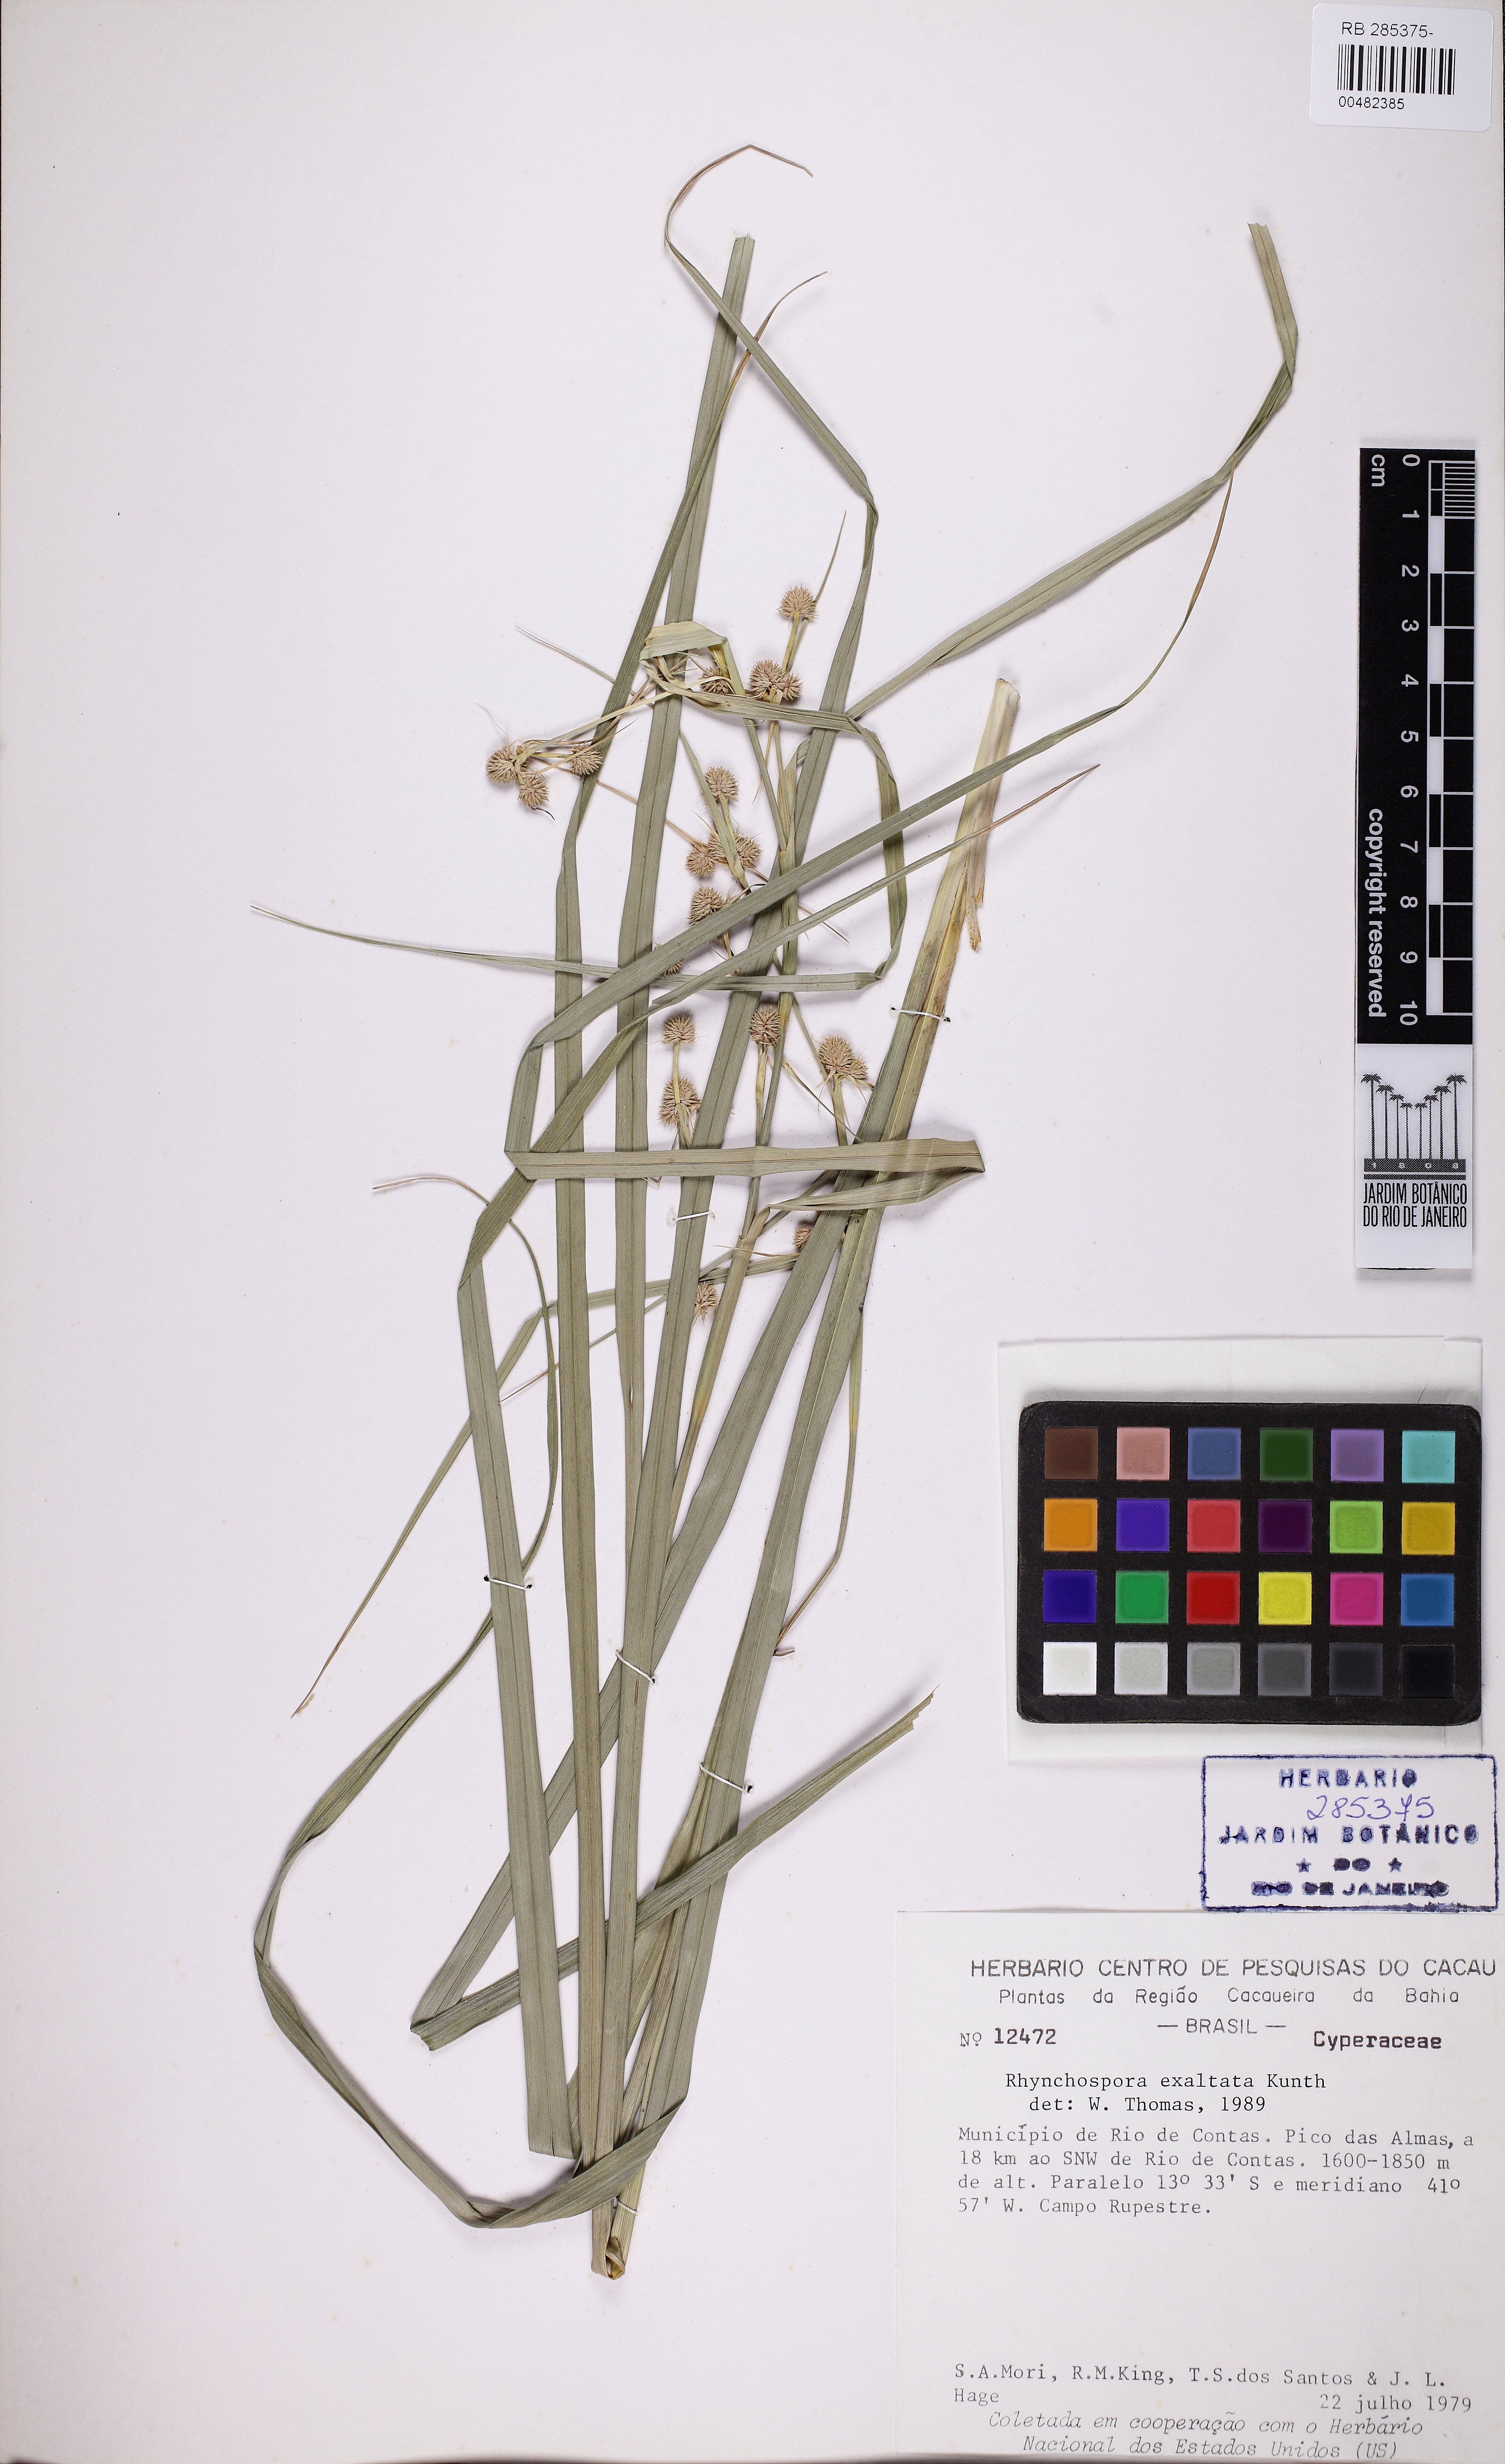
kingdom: Plantae
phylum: Tracheophyta
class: Liliopsida
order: Poales
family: Cyperaceae
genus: Rhynchospora
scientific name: Rhynchospora exaltata
